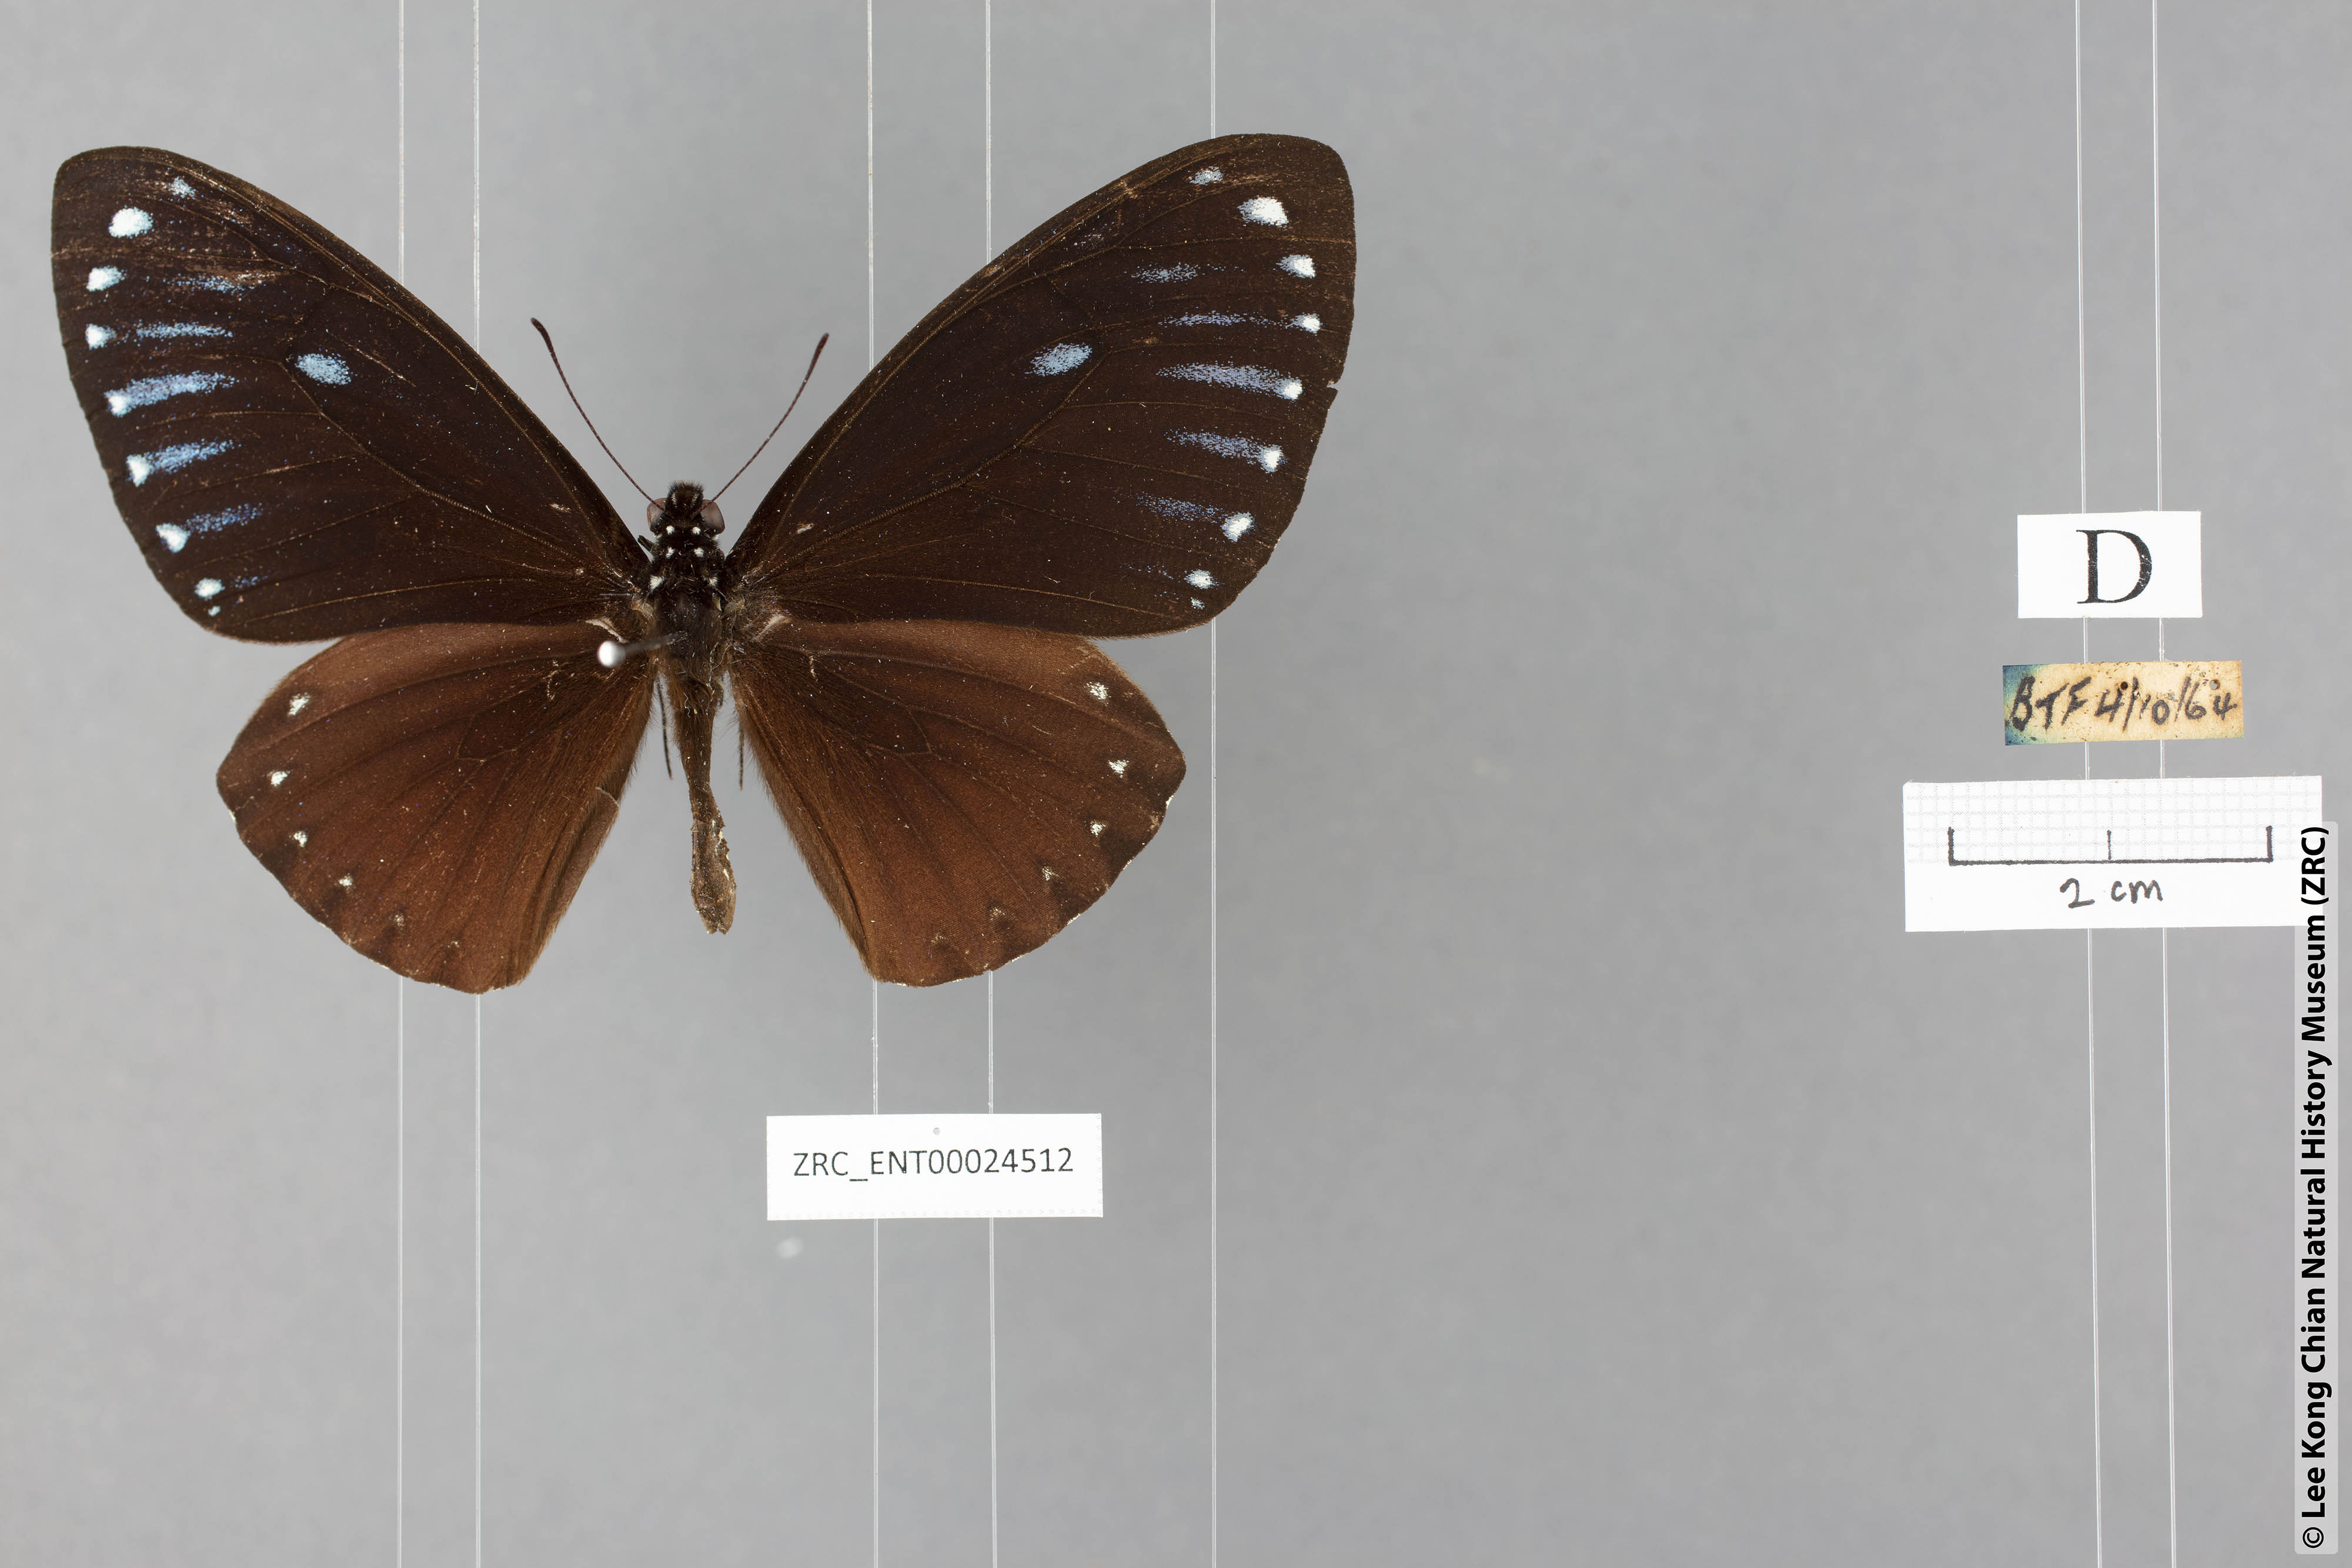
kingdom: Animalia
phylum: Arthropoda
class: Insecta
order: Lepidoptera
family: Papilionidae
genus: Chilasa
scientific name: Chilasa paradoxa
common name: Great mime
